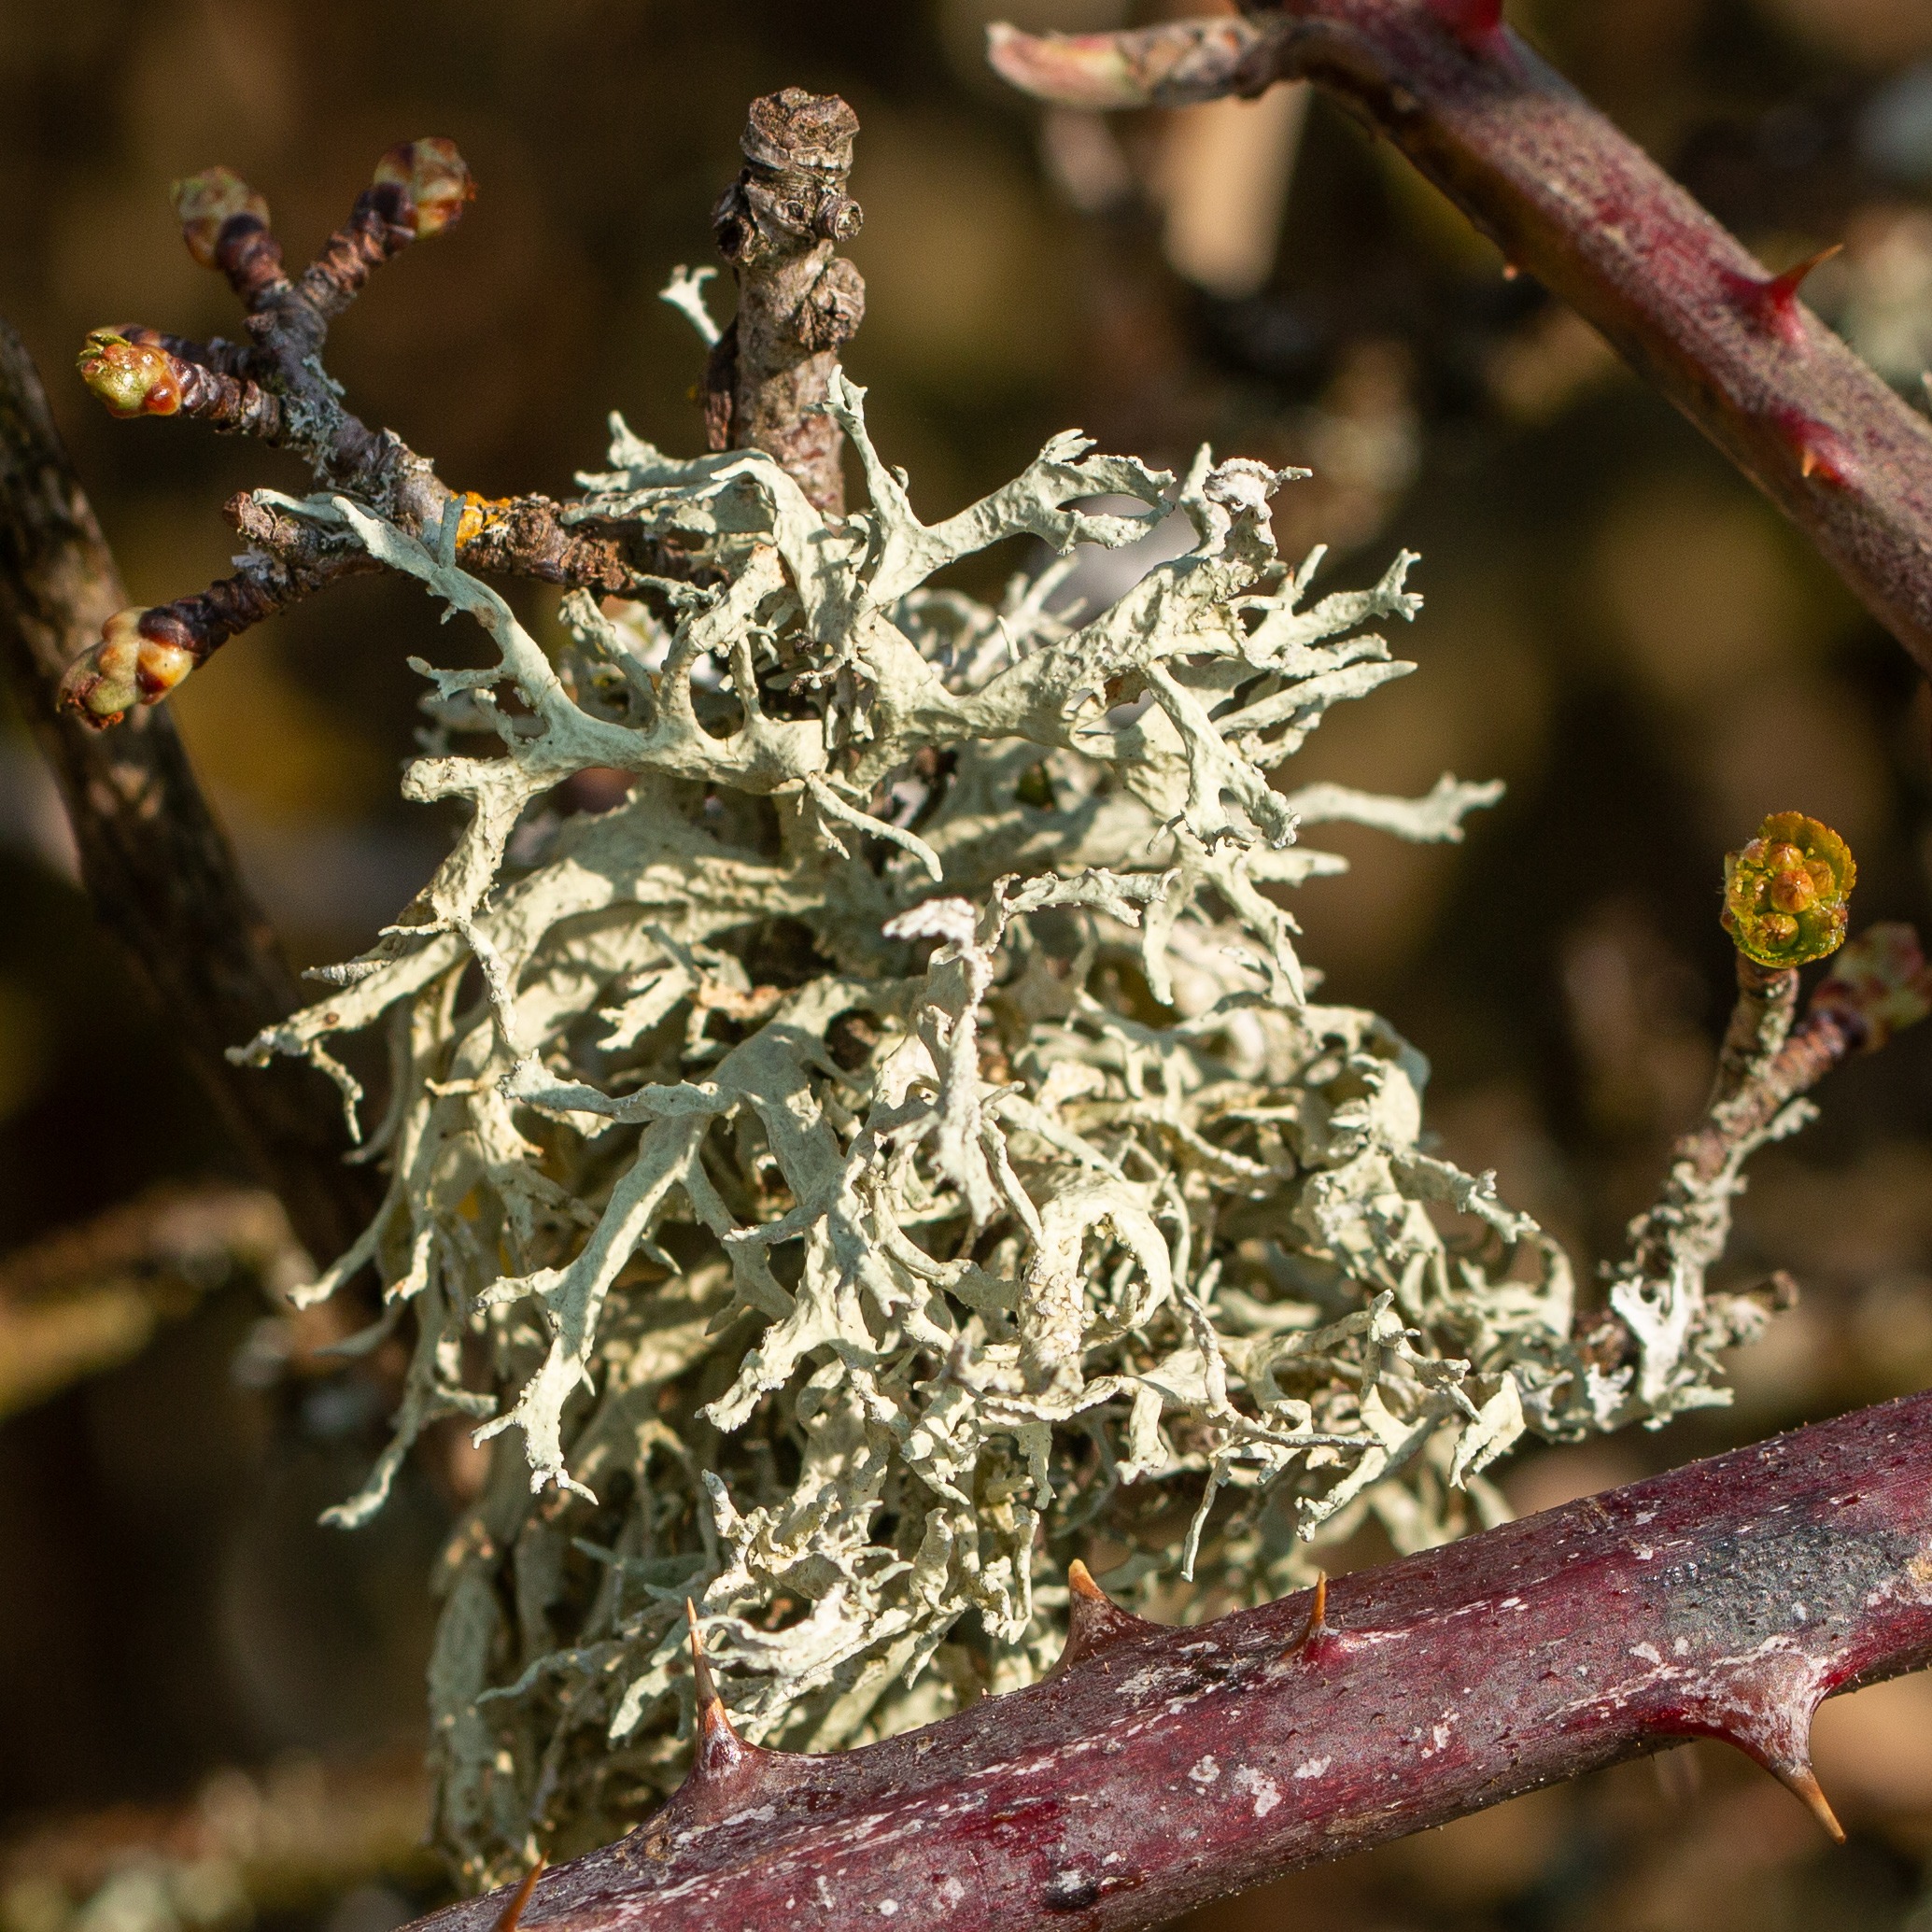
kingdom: Fungi
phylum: Ascomycota
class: Lecanoromycetes
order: Lecanorales
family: Parmeliaceae
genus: Evernia
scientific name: Evernia prunastri
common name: Almindelig slåenlav
